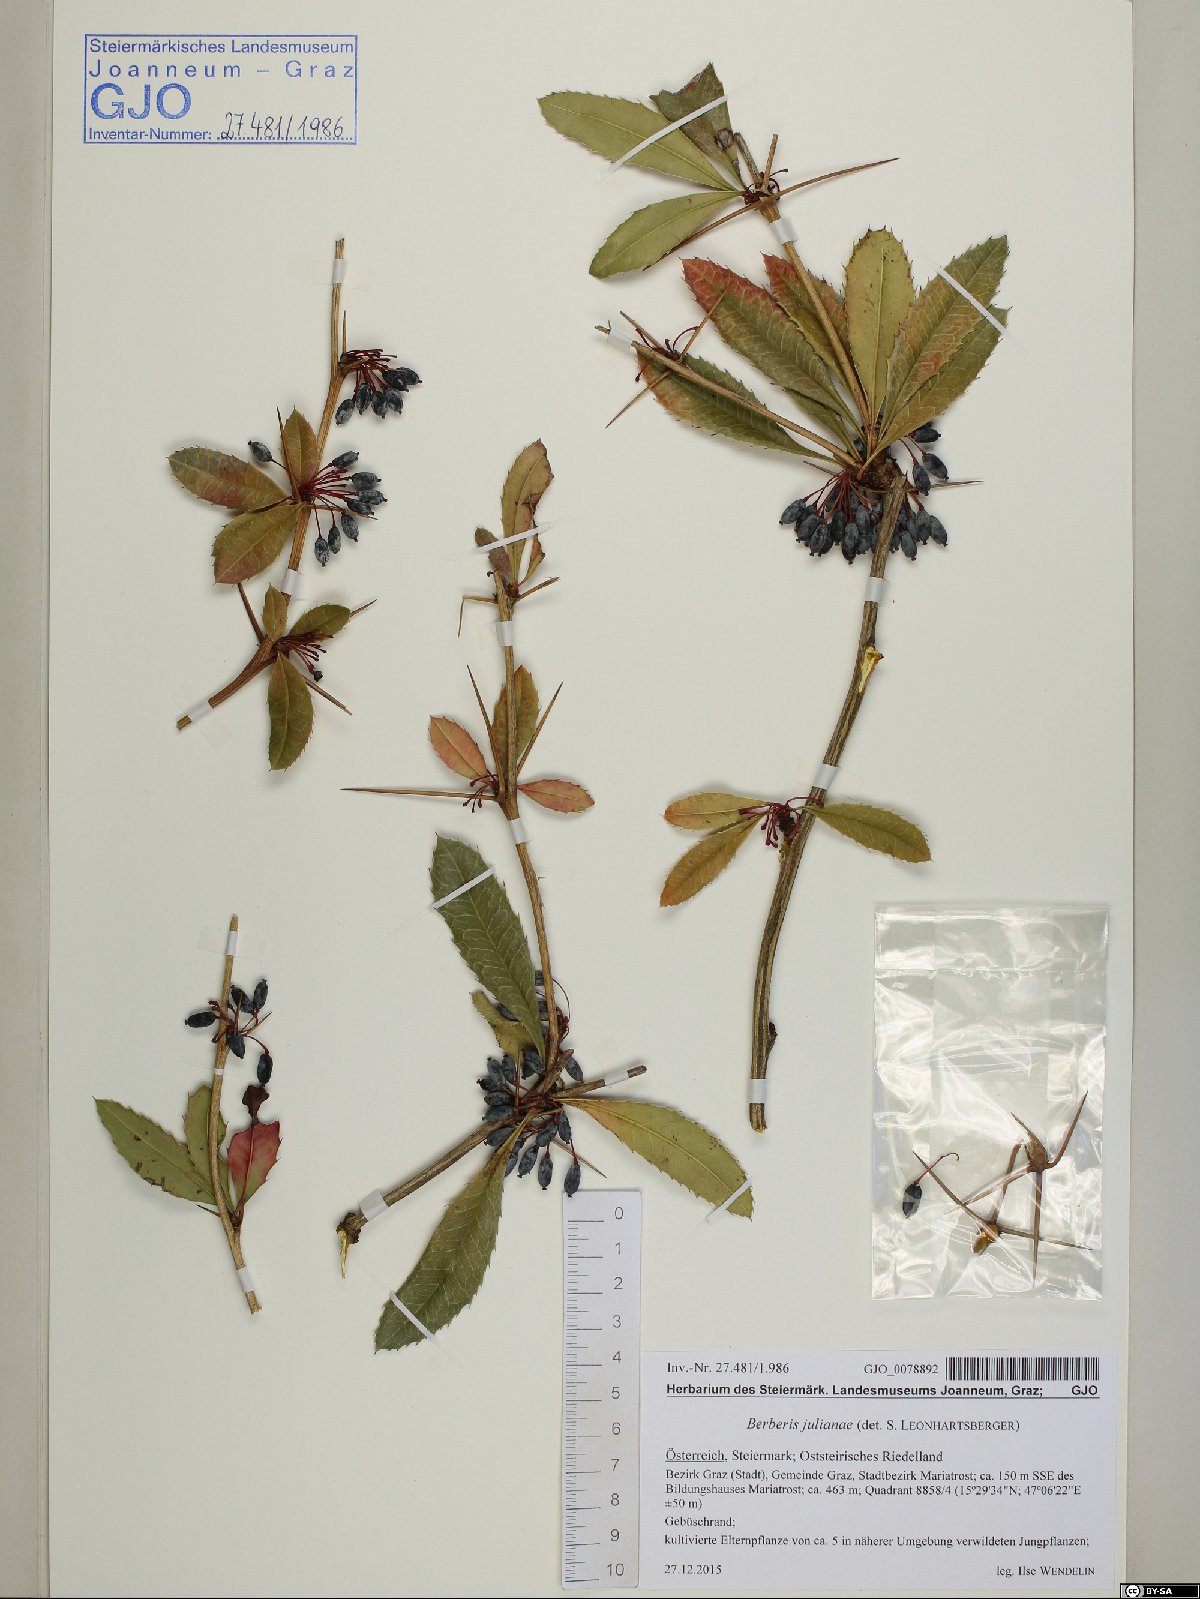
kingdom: Plantae
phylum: Tracheophyta
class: Magnoliopsida
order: Ranunculales
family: Berberidaceae
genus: Berberis
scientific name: Berberis julianae
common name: Wintergreen barberry
